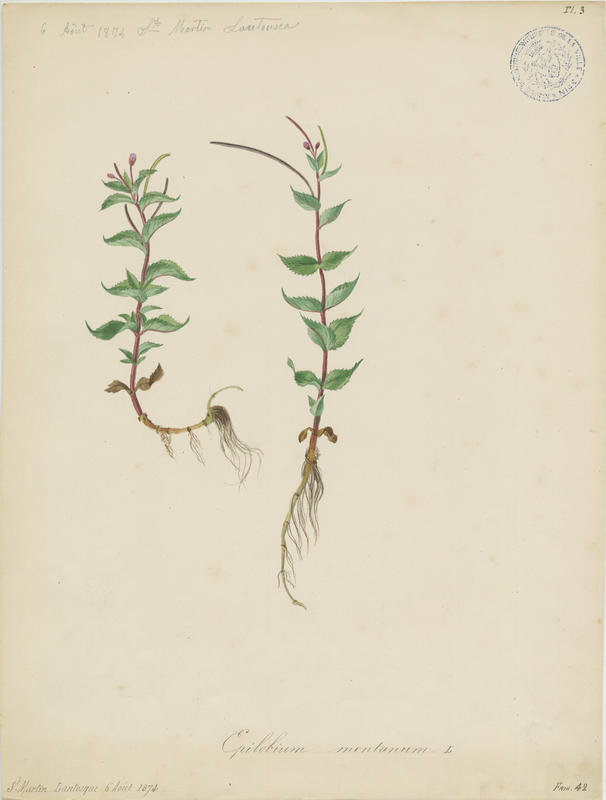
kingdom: Plantae
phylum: Tracheophyta
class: Magnoliopsida
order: Myrtales
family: Onagraceae
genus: Epilobium
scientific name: Epilobium montanum
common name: Broad-leaved willowherb
